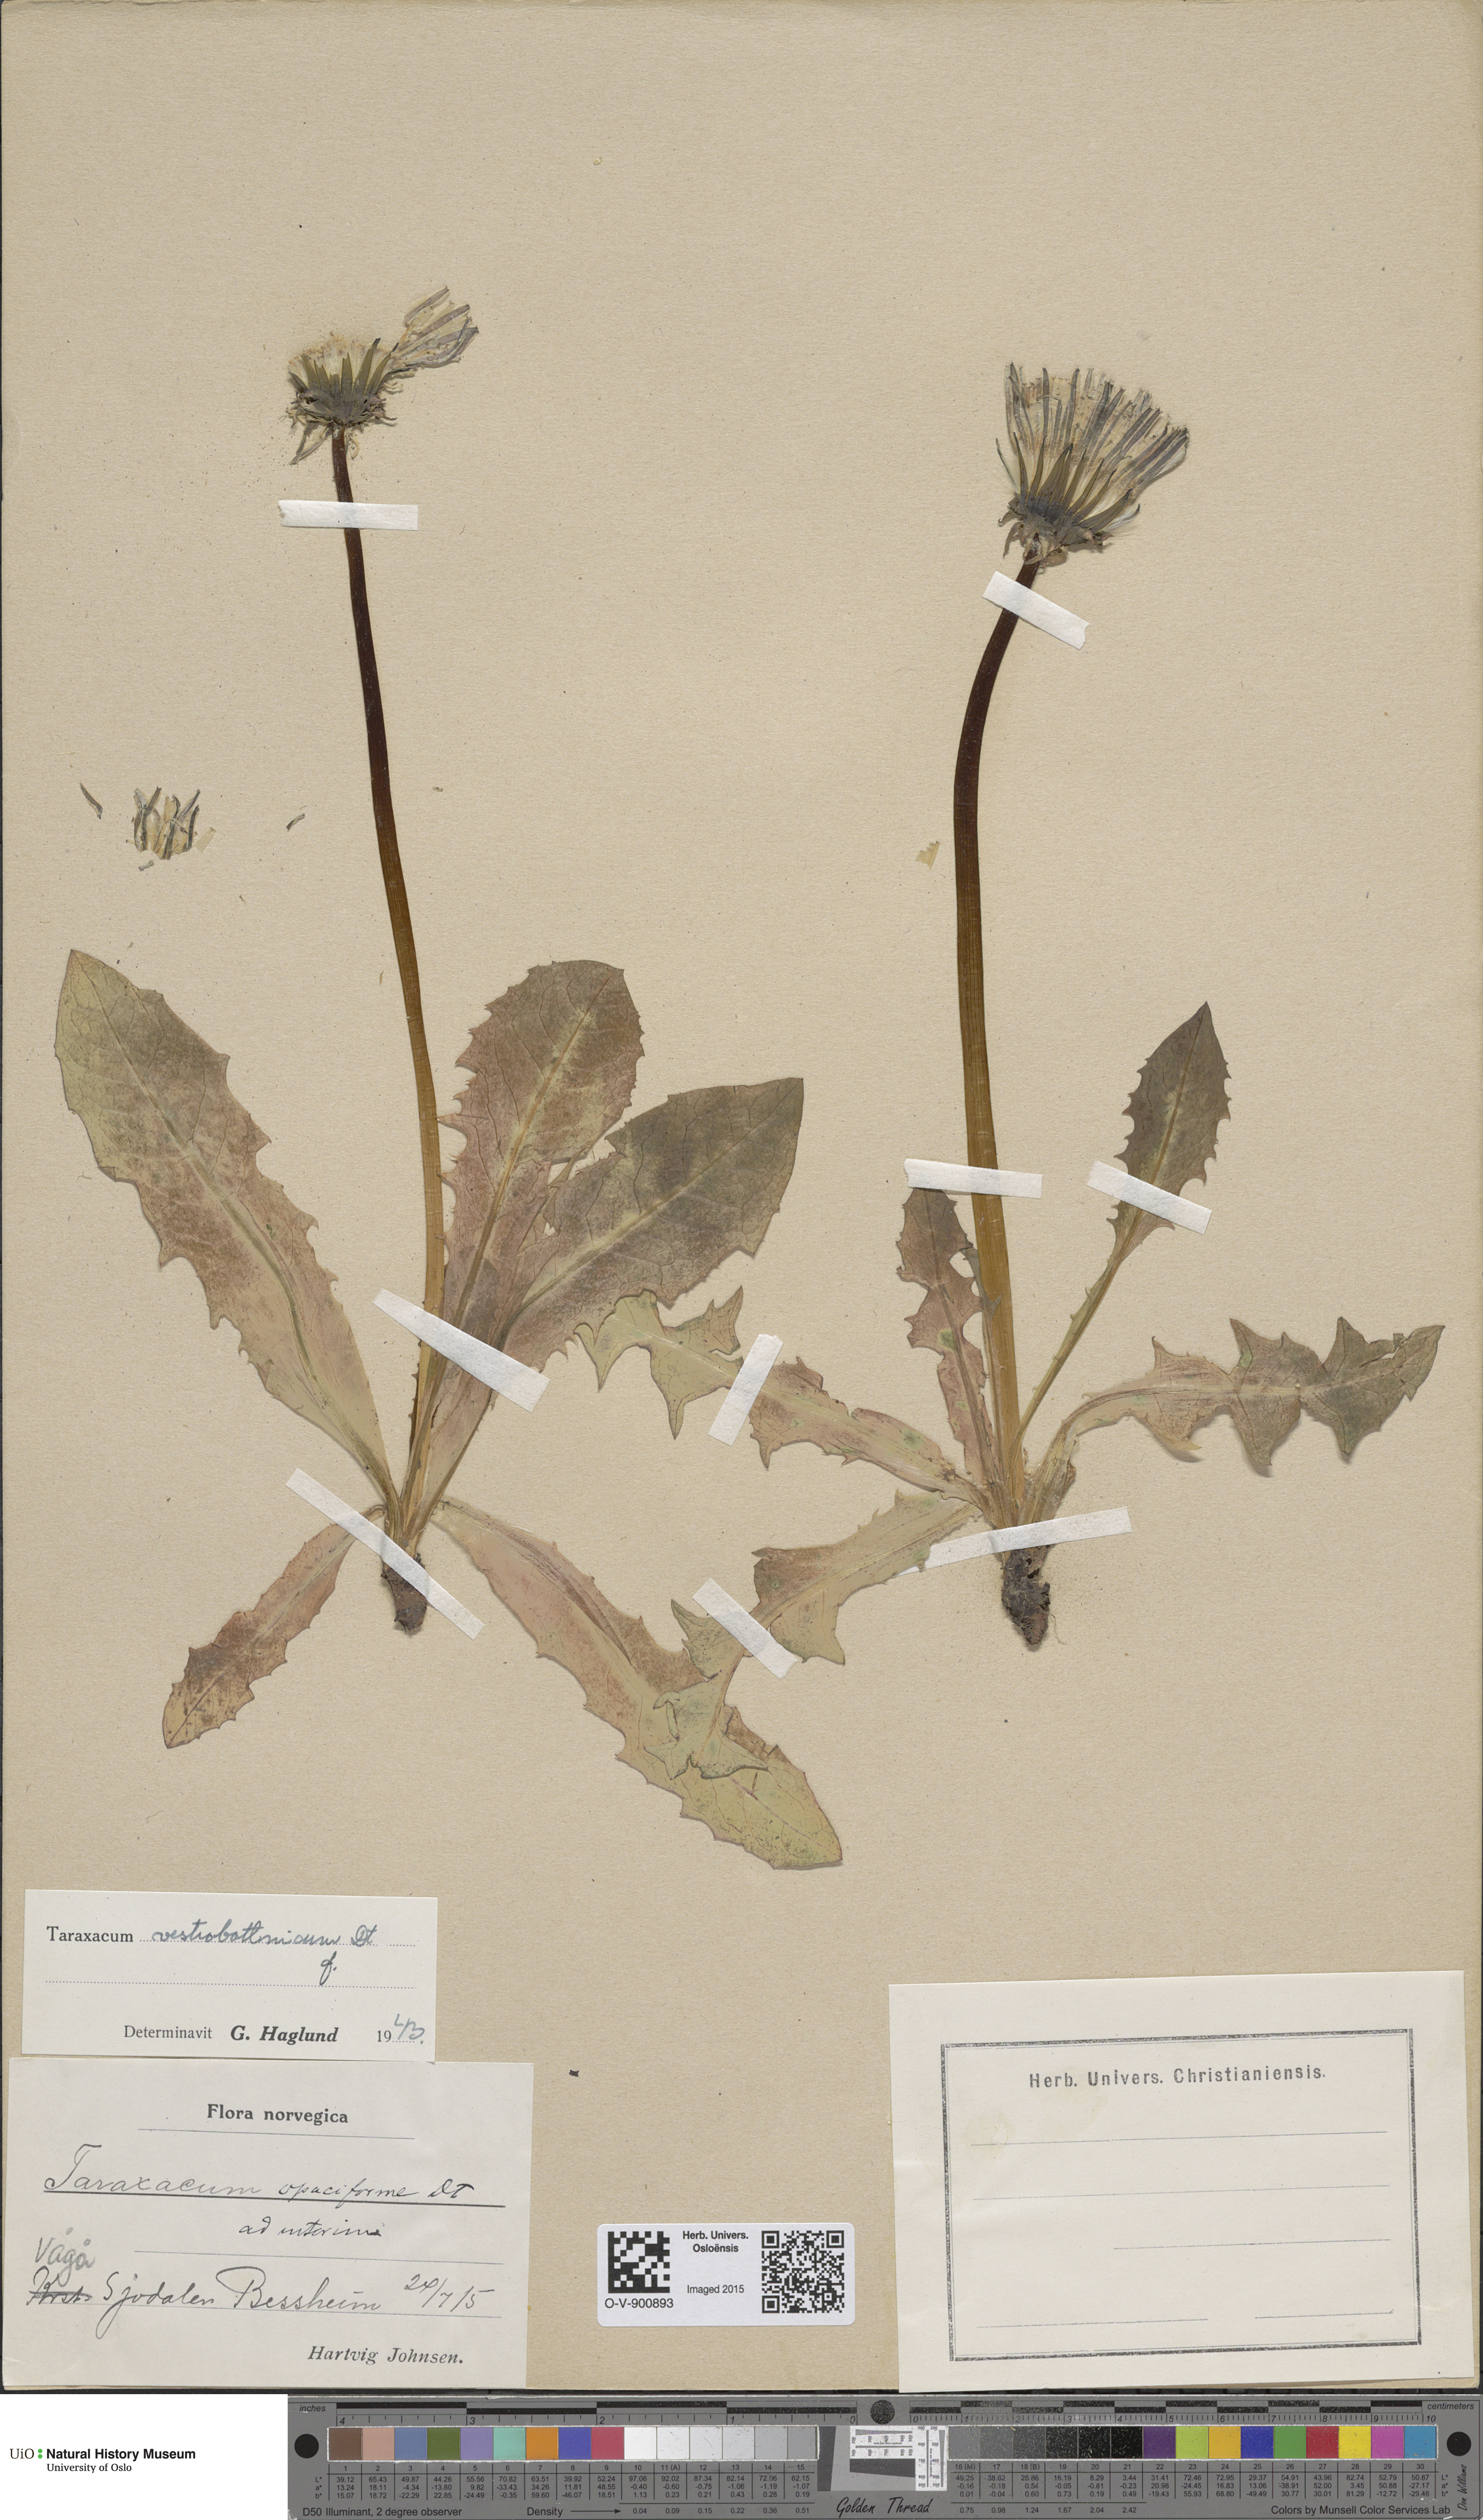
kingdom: Plantae
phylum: Tracheophyta
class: Magnoliopsida
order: Asterales
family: Asteraceae
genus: Taraxacum
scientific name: Taraxacum vestrobottnicum
